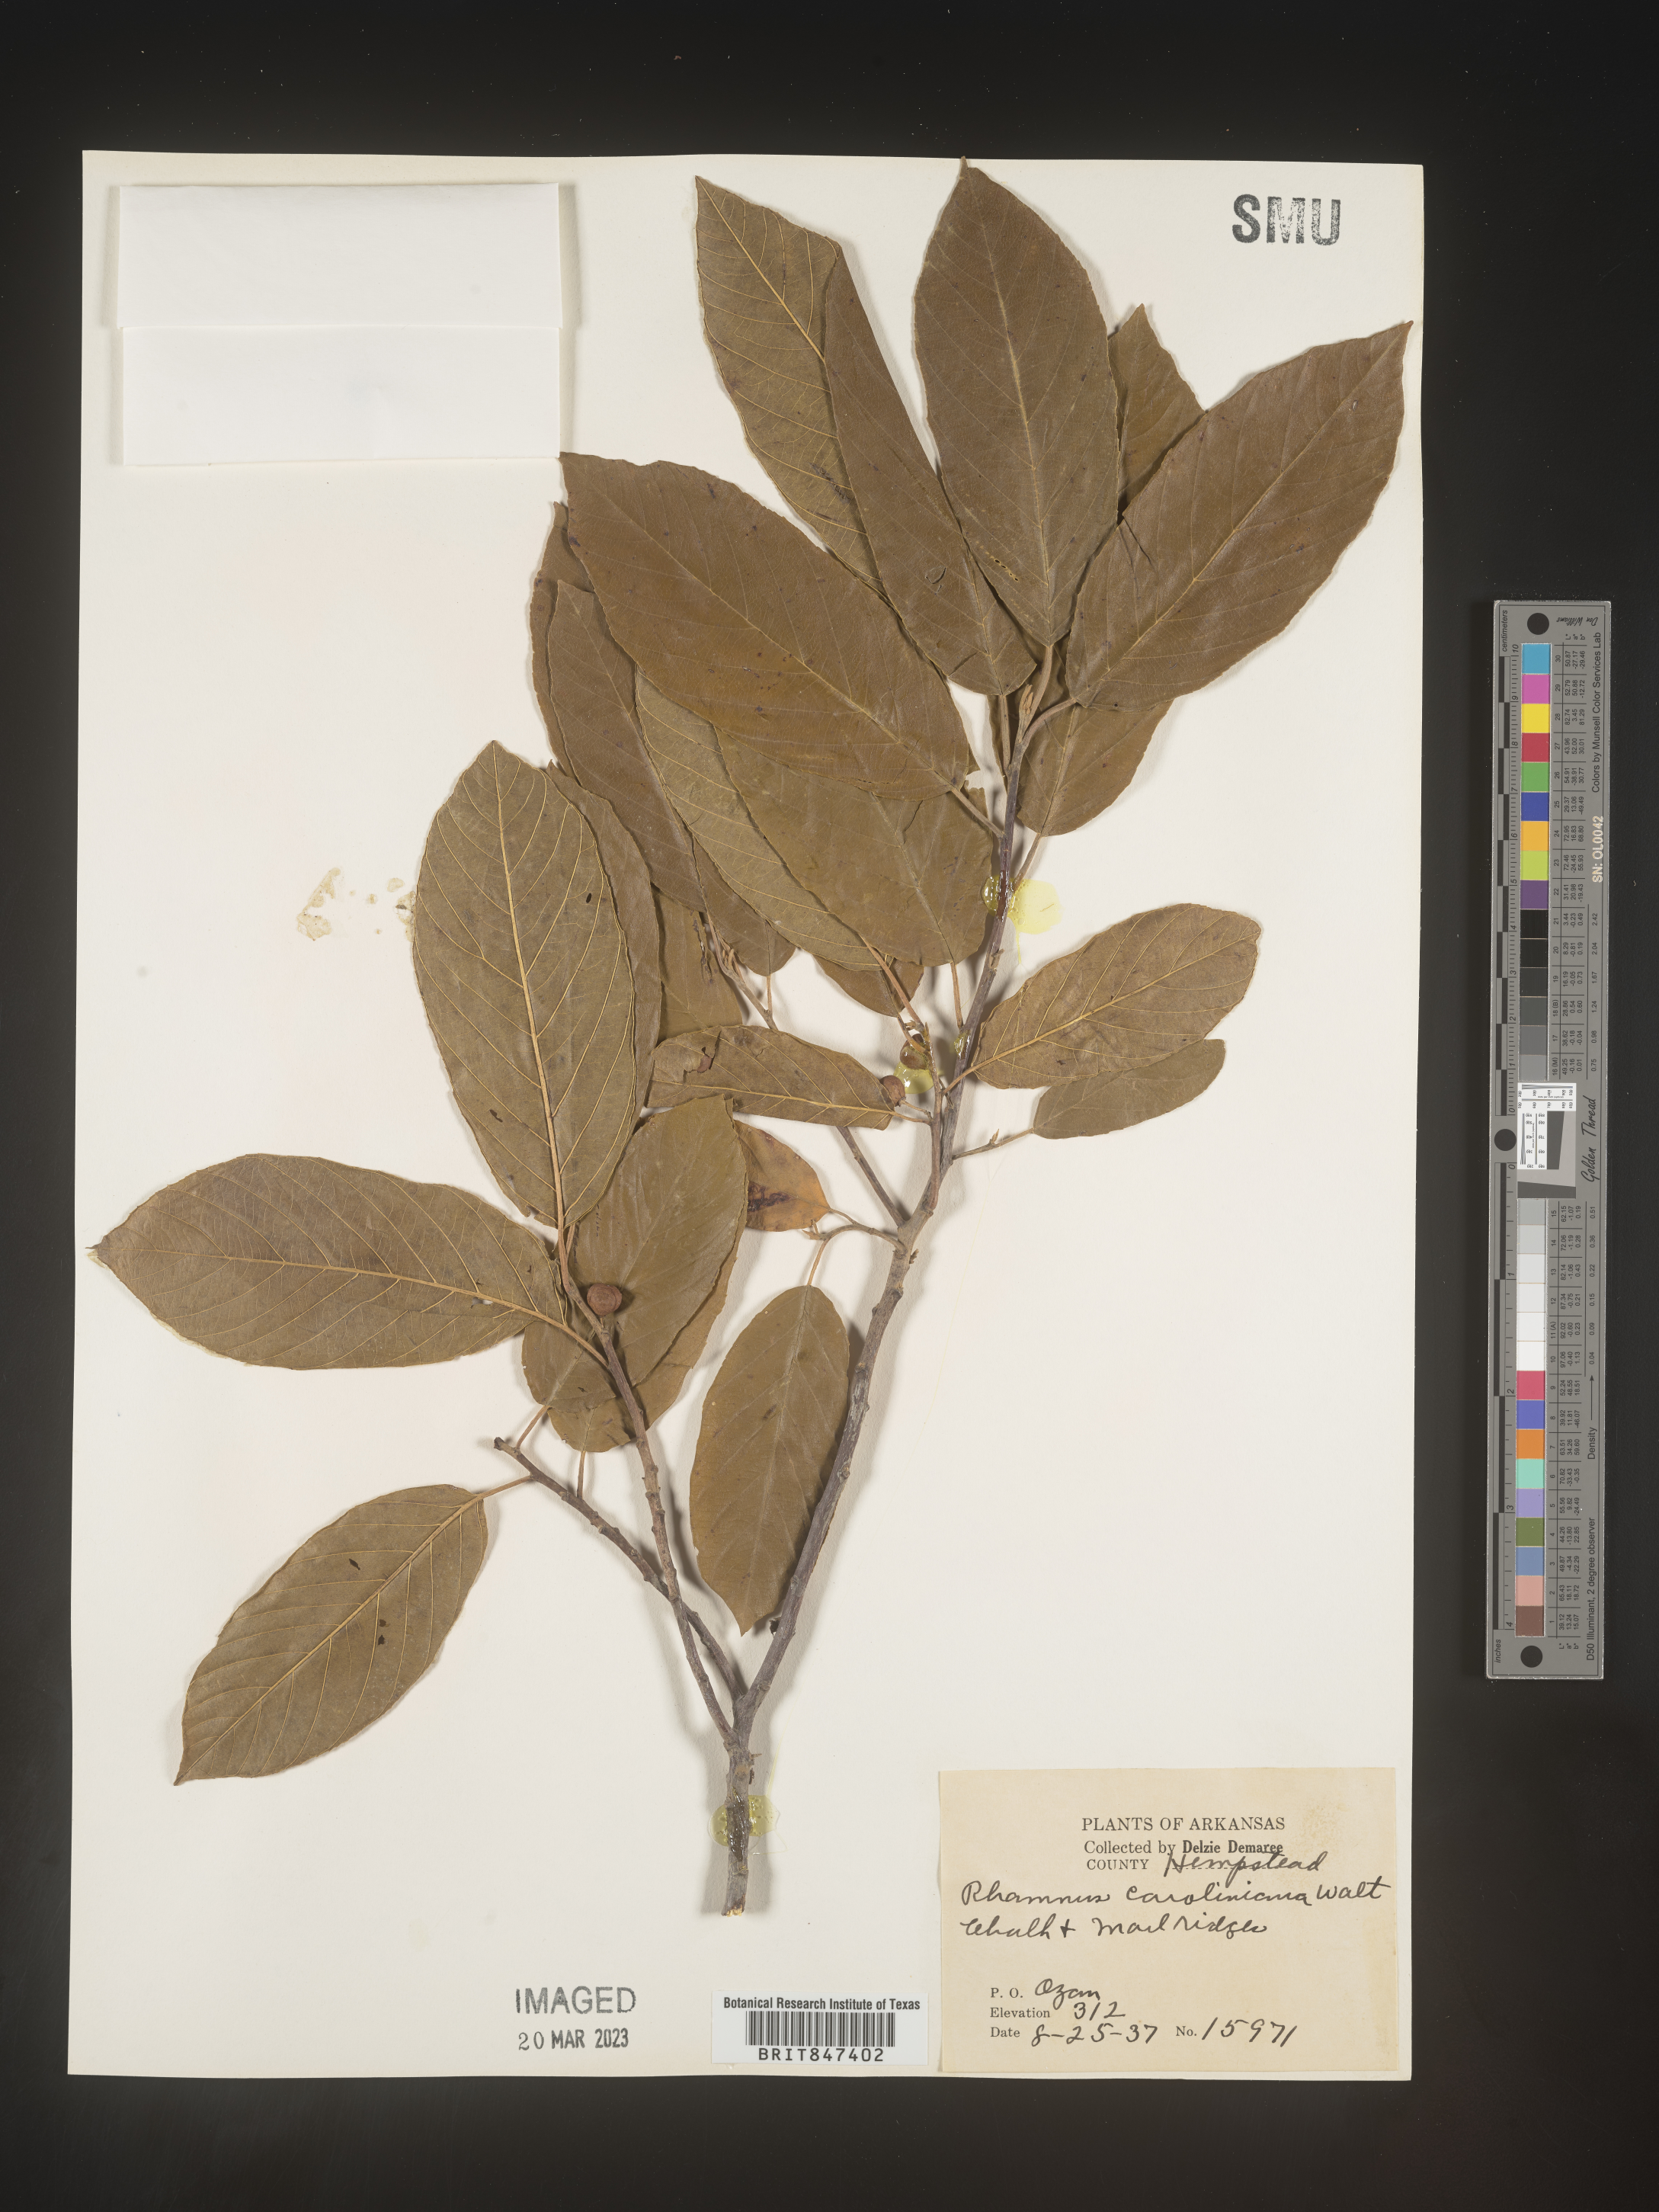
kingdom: Plantae
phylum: Tracheophyta
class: Magnoliopsida
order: Rosales
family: Rhamnaceae
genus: Frangula
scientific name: Frangula caroliniana
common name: Carolina buckthorn
